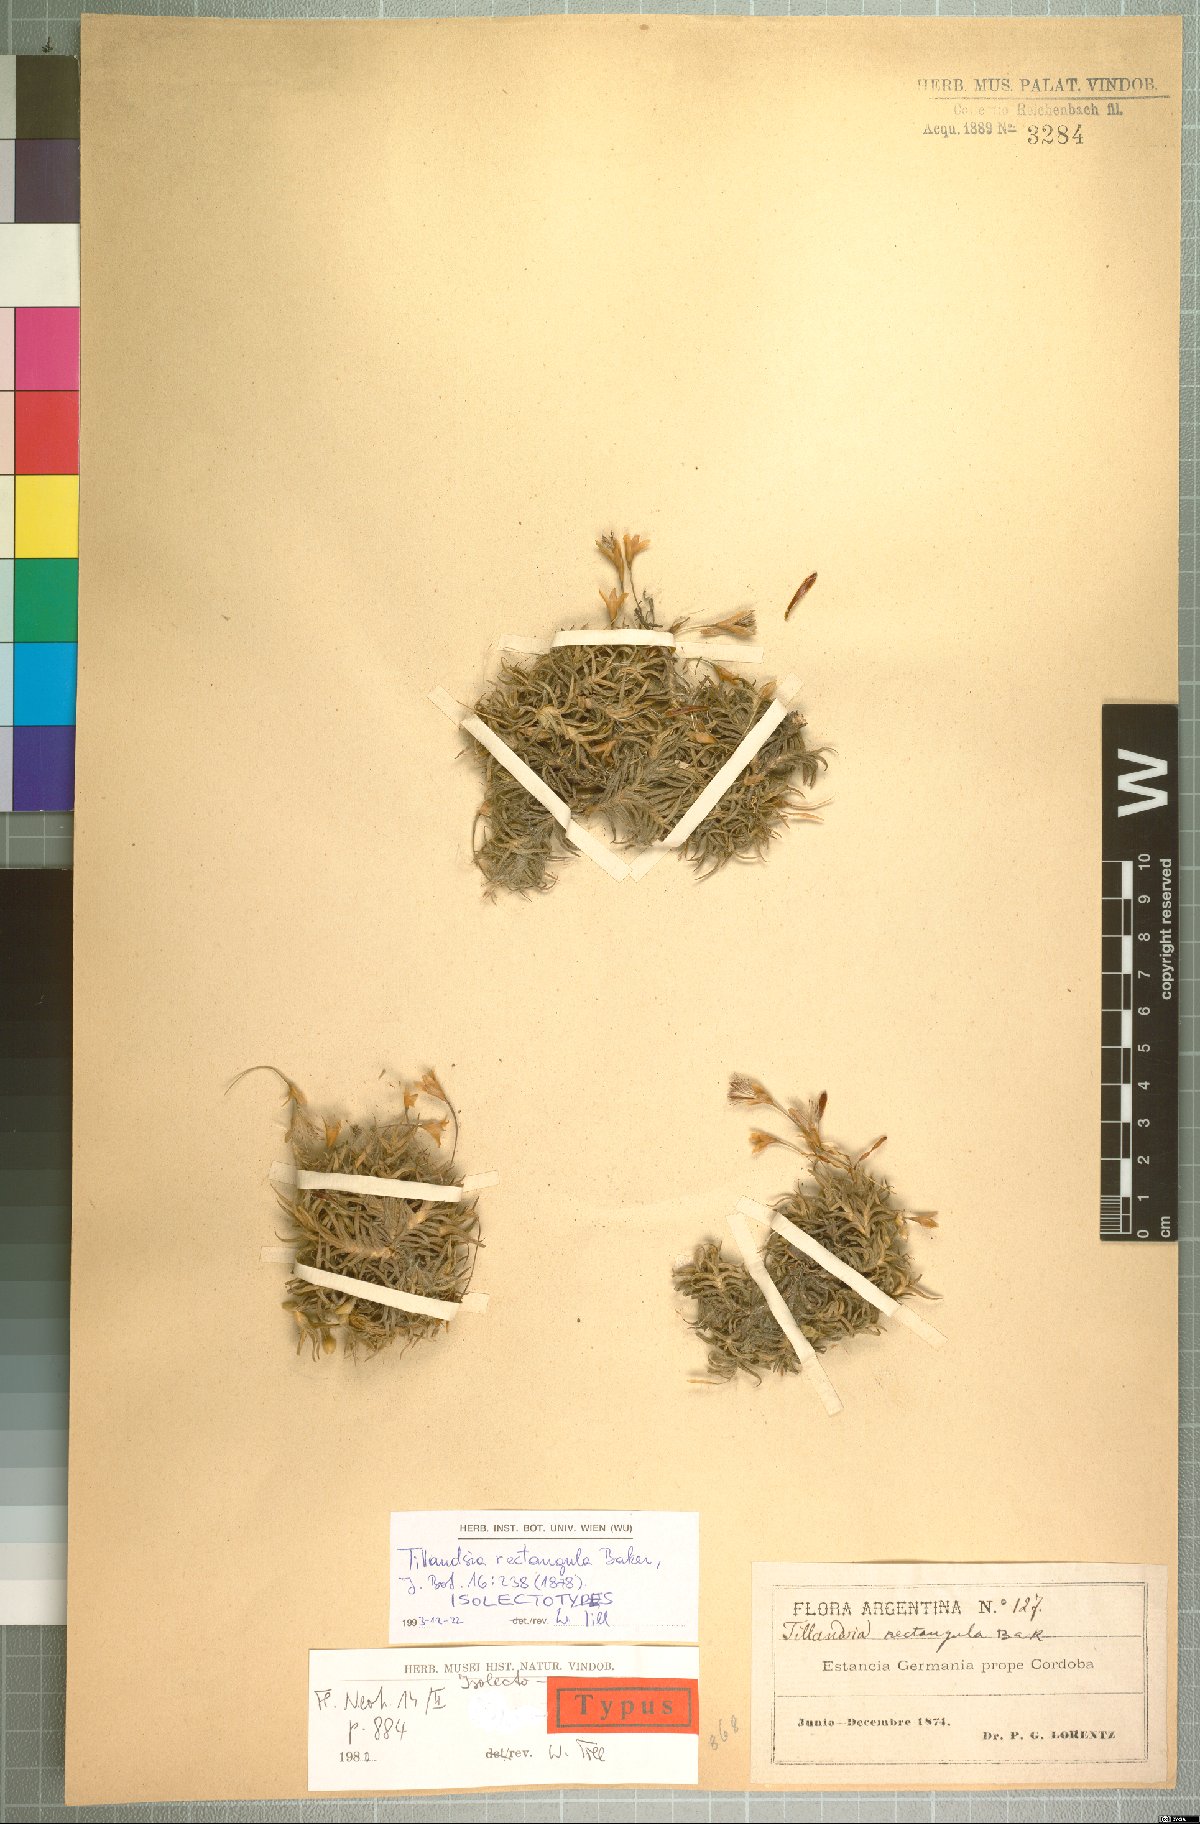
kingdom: Plantae
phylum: Tracheophyta
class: Liliopsida
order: Poales
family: Bromeliaceae
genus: Tillandsia
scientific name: Tillandsia rectangula
